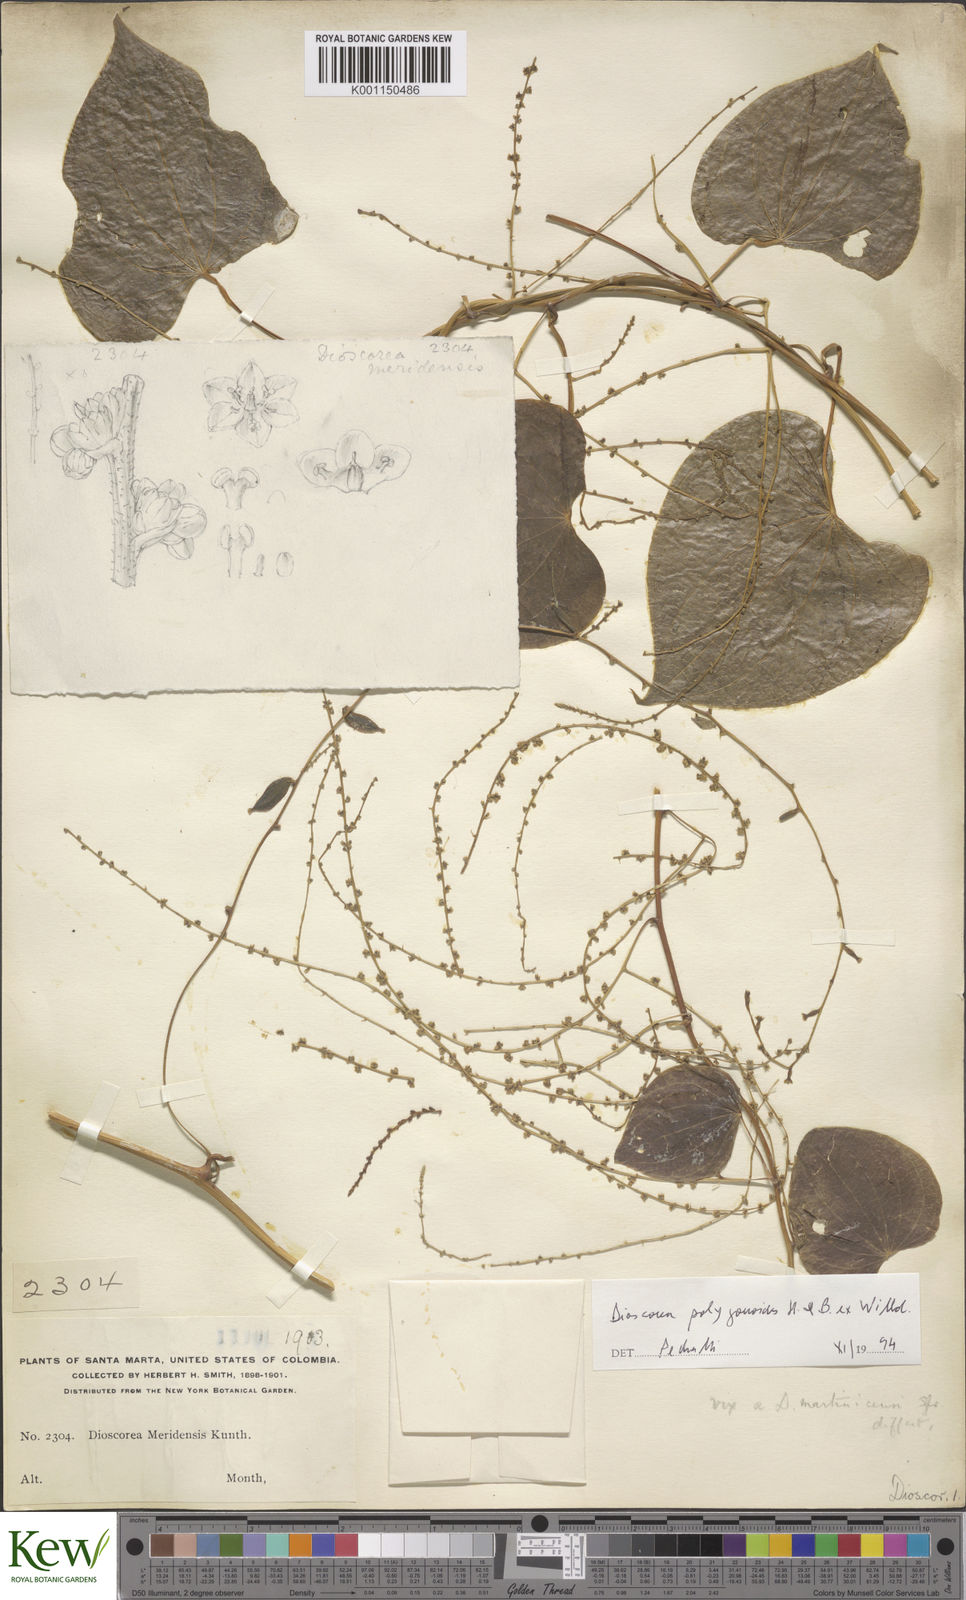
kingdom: Plantae
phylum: Tracheophyta
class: Liliopsida
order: Dioscoreales
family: Dioscoreaceae
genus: Dioscorea
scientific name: Dioscorea meridensis
